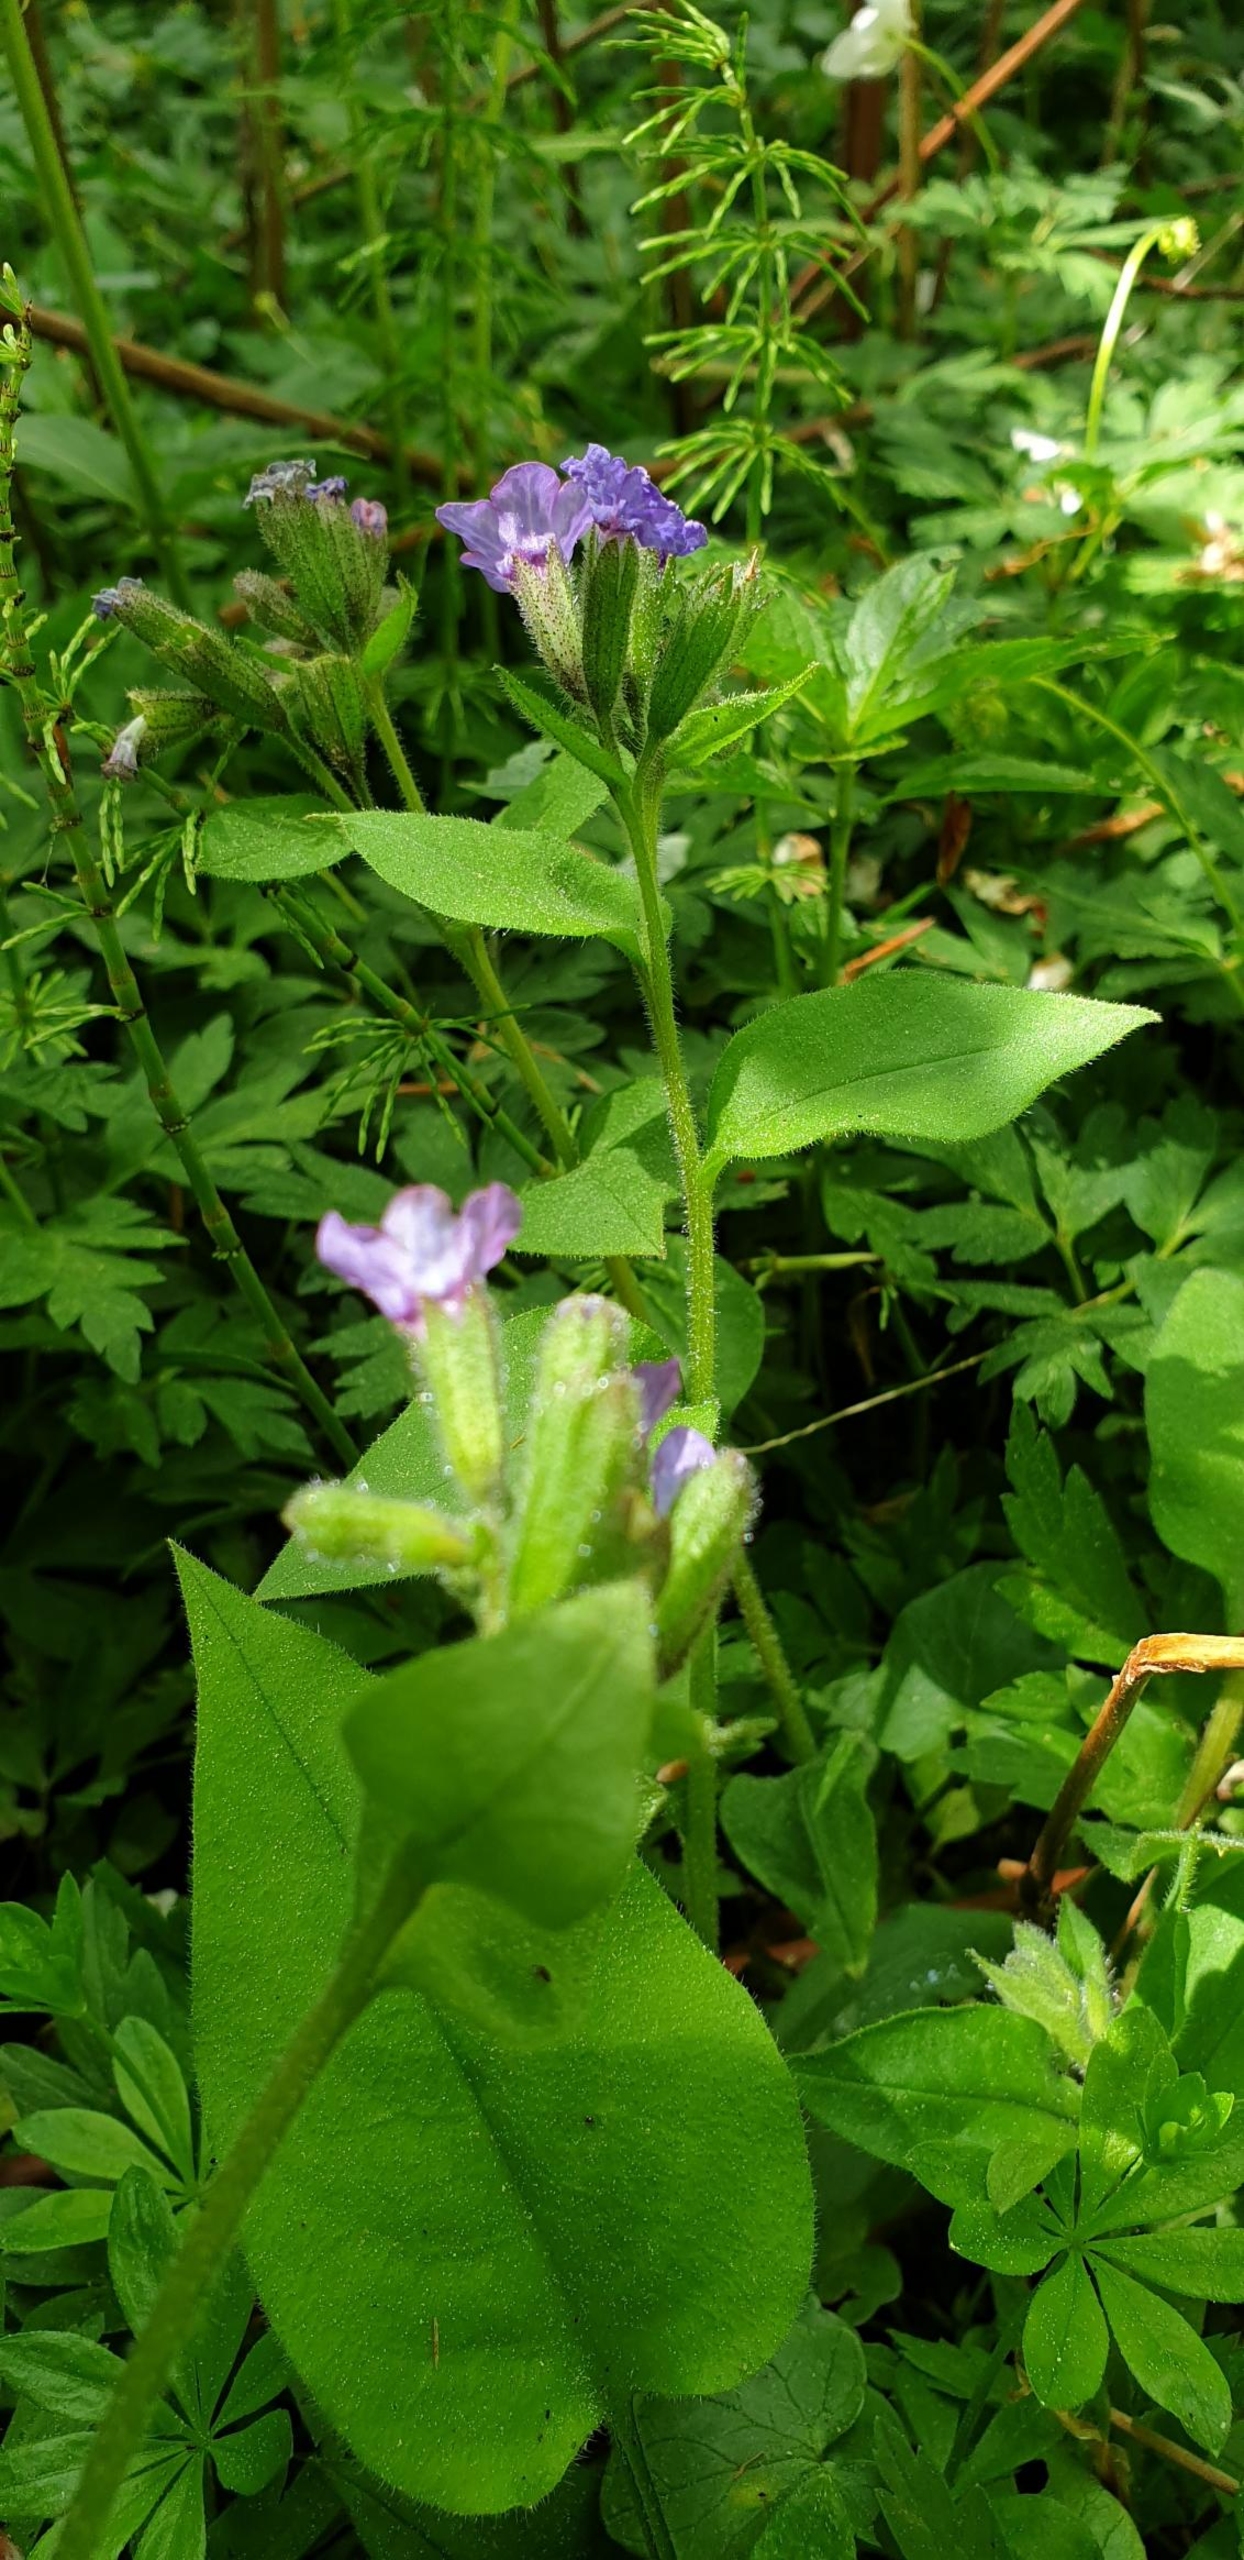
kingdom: Plantae
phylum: Tracheophyta
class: Magnoliopsida
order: Boraginales
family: Boraginaceae
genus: Pulmonaria
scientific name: Pulmonaria obscura
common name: Almindelig lungeurt
